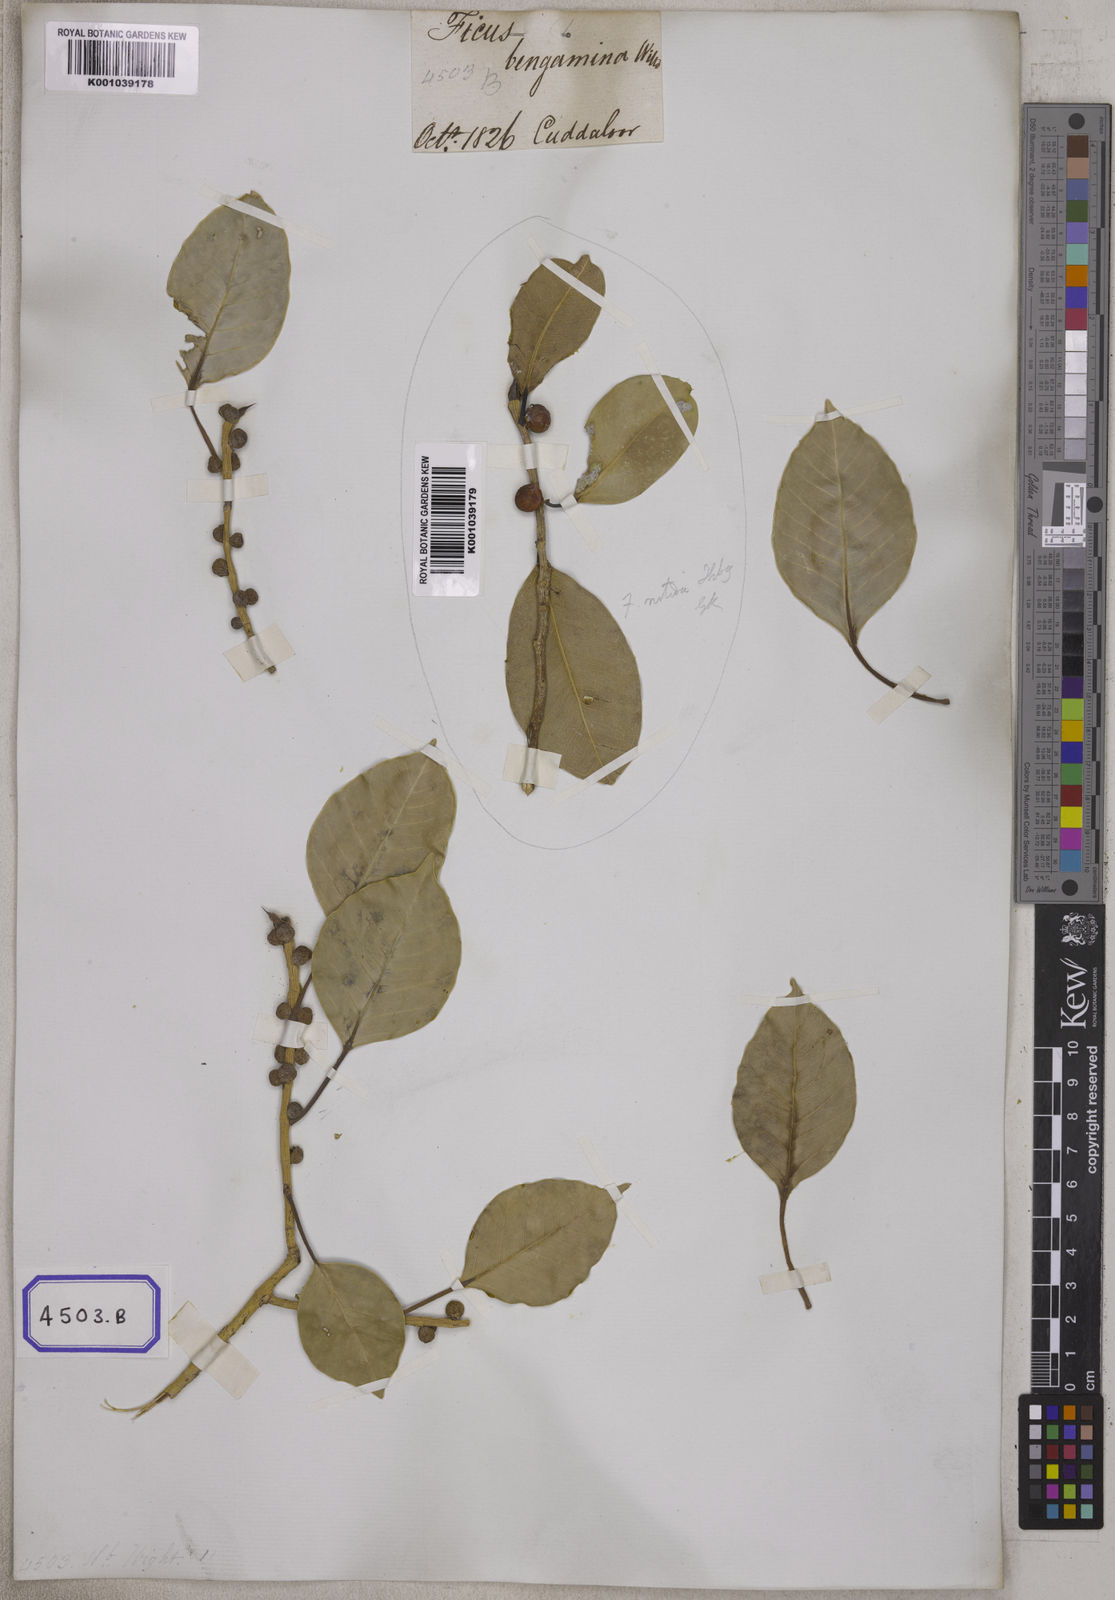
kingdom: Plantae
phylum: Tracheophyta
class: Magnoliopsida
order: Rosales
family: Moraceae
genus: Ficus
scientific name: Ficus
